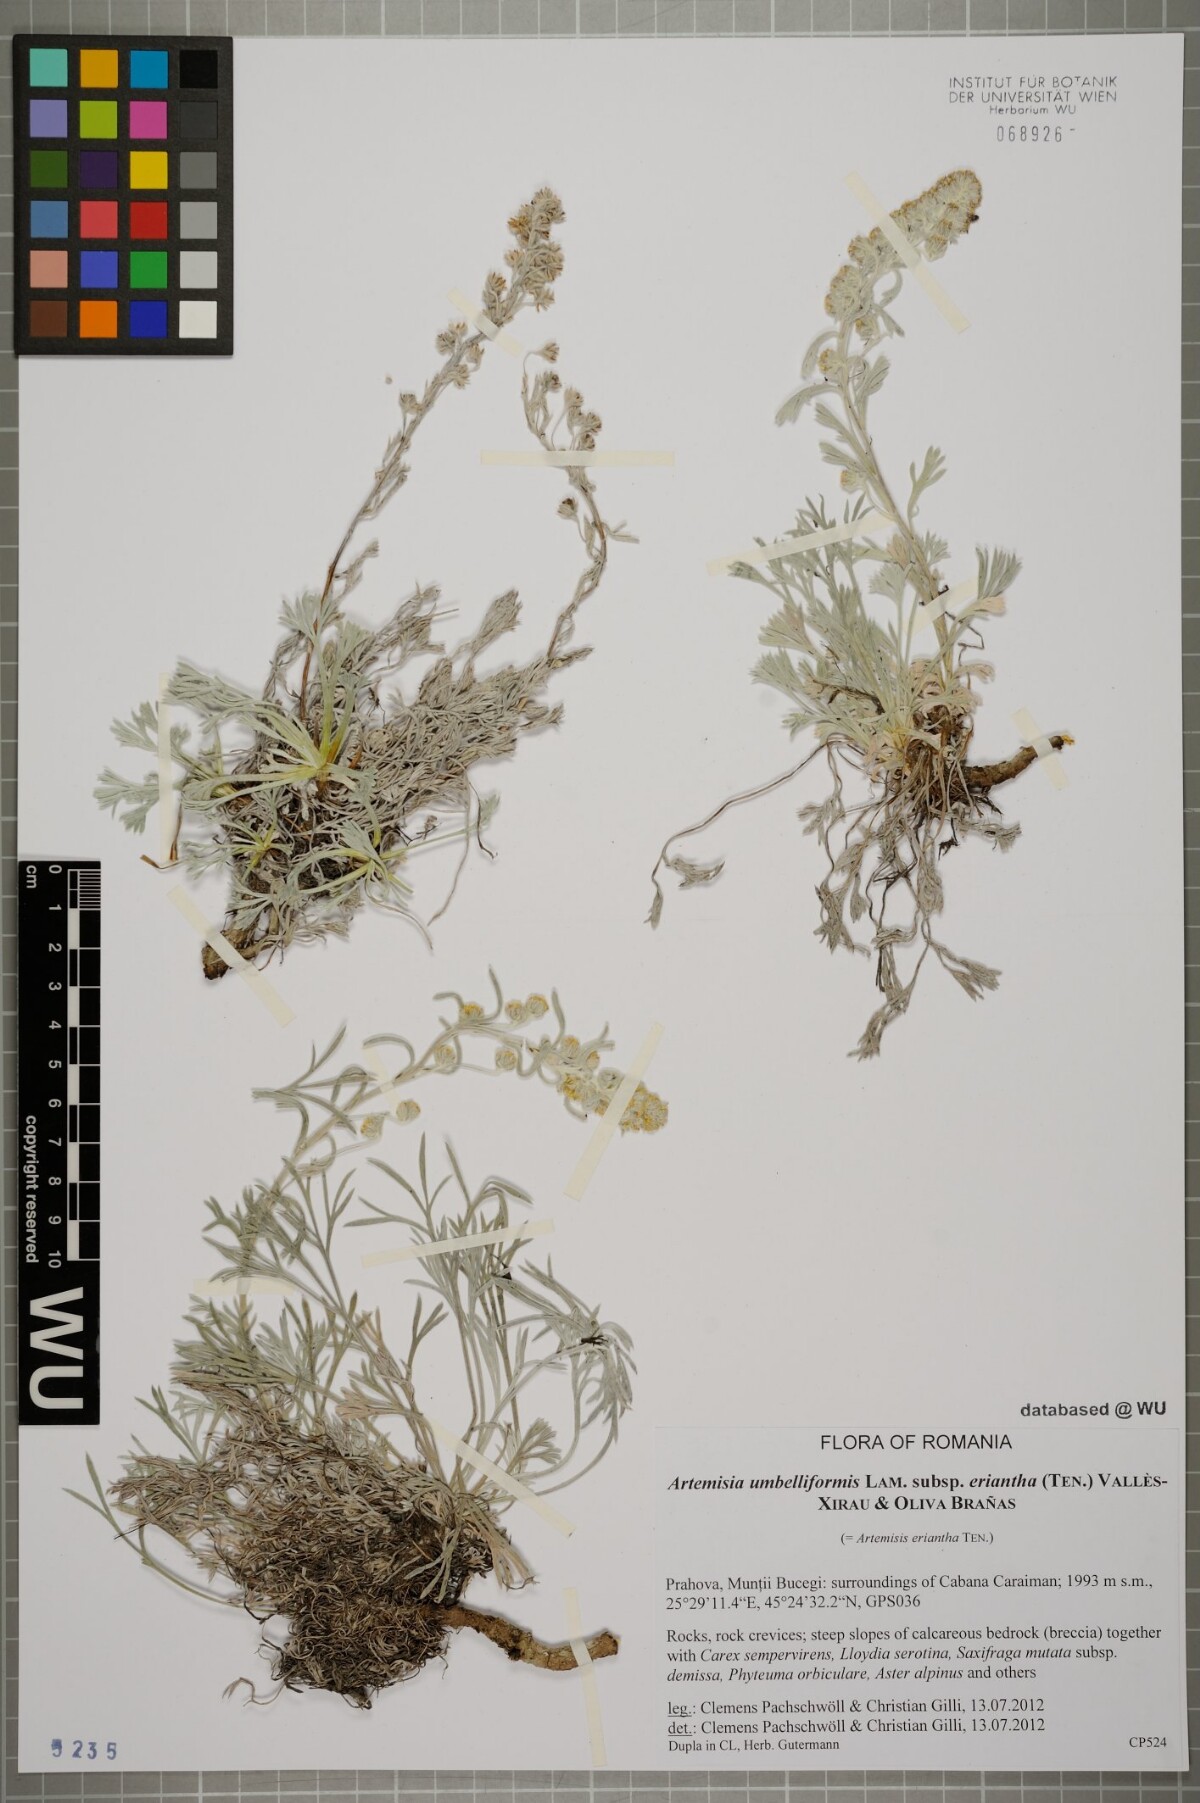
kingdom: Plantae
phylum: Tracheophyta
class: Magnoliopsida
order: Asterales
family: Asteraceae
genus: Artemisia
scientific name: Artemisia eriantha
